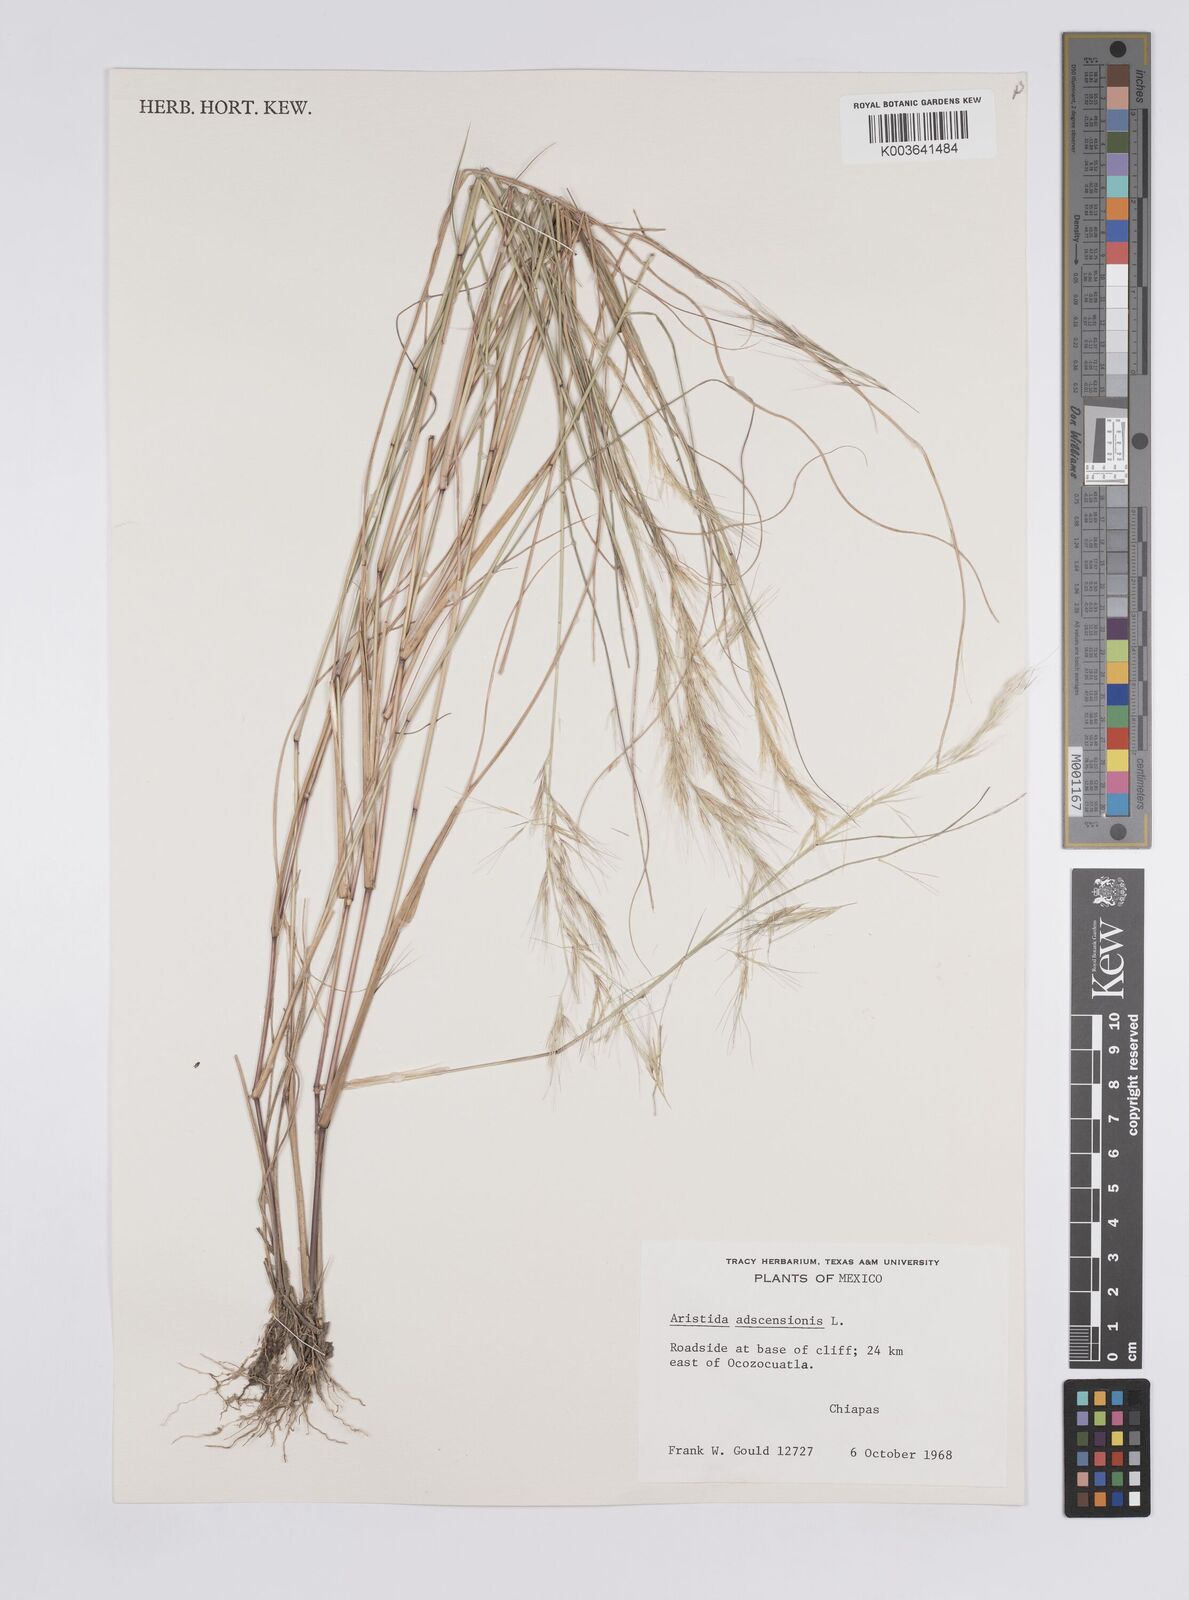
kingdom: Plantae
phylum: Tracheophyta
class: Liliopsida
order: Poales
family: Poaceae
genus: Aristida
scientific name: Aristida adscensionis
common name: Sixweeks threeawn
